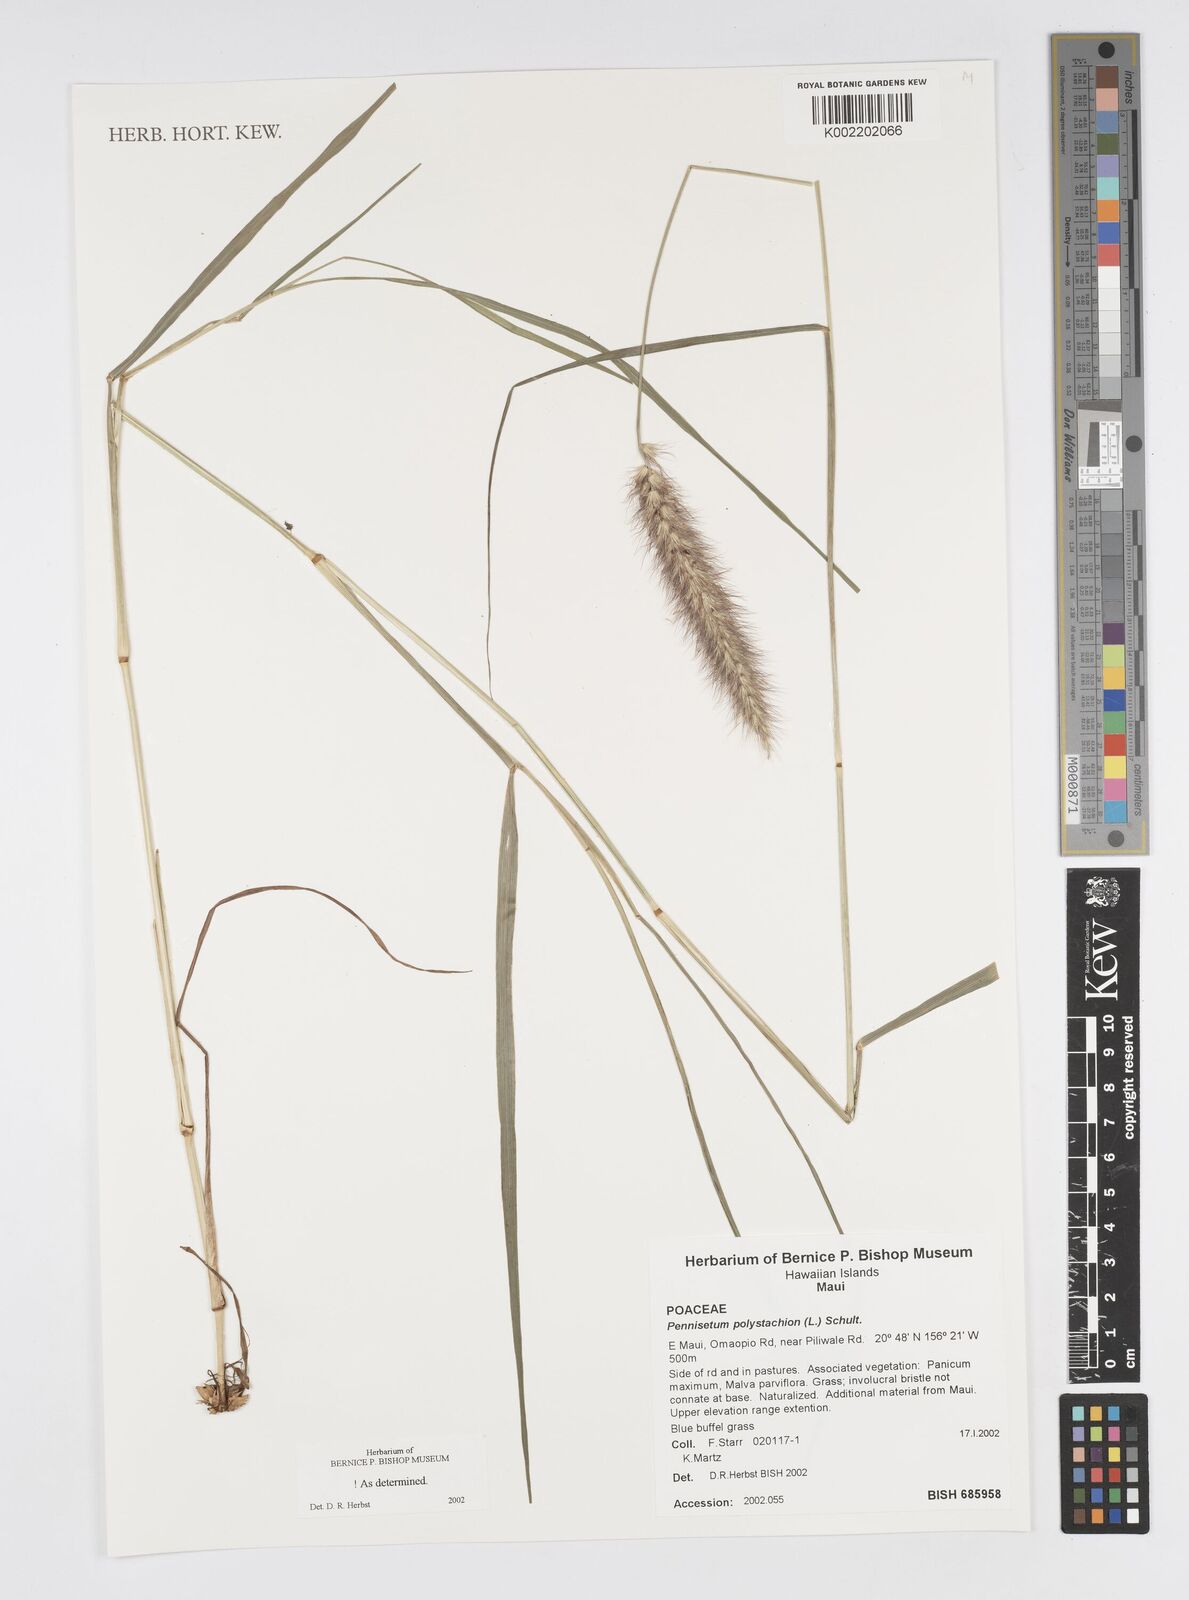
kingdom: Plantae
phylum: Tracheophyta
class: Liliopsida
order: Poales
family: Poaceae
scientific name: Poaceae
